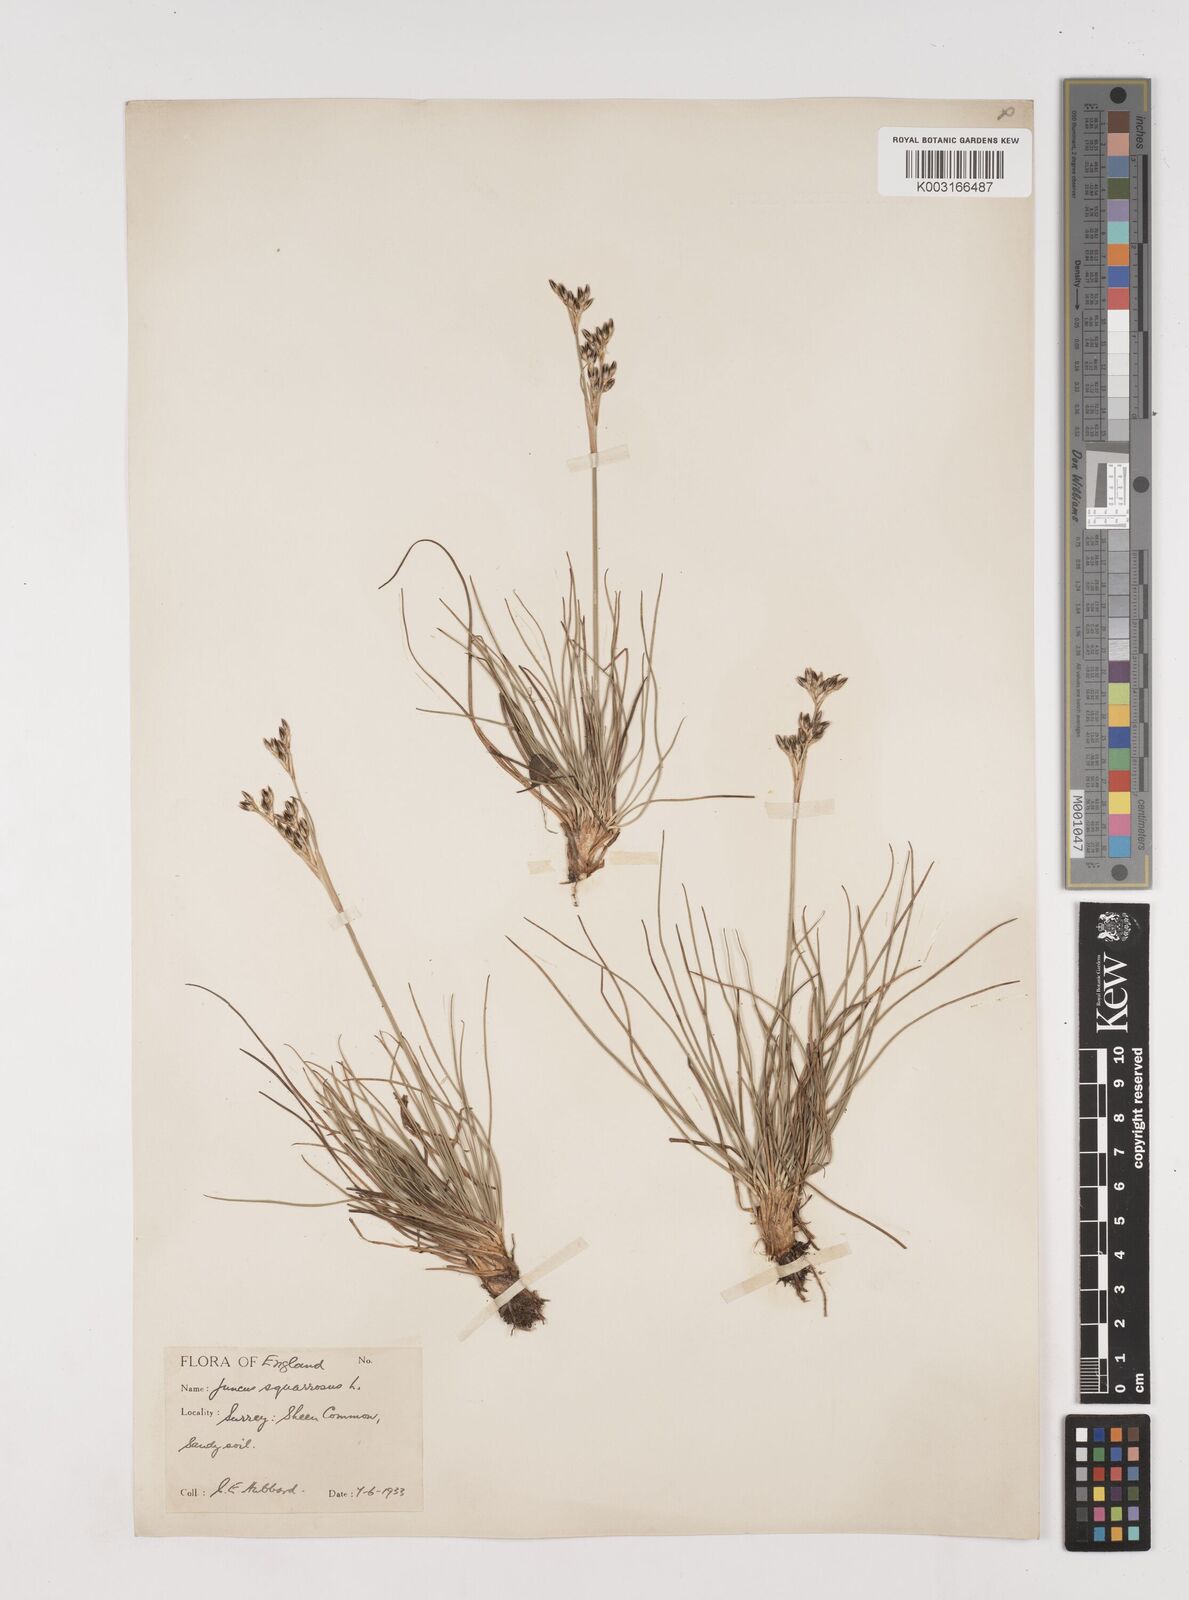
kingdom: Plantae
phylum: Tracheophyta
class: Liliopsida
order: Poales
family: Juncaceae
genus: Juncus
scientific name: Juncus squarrosus
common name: Heath rush
